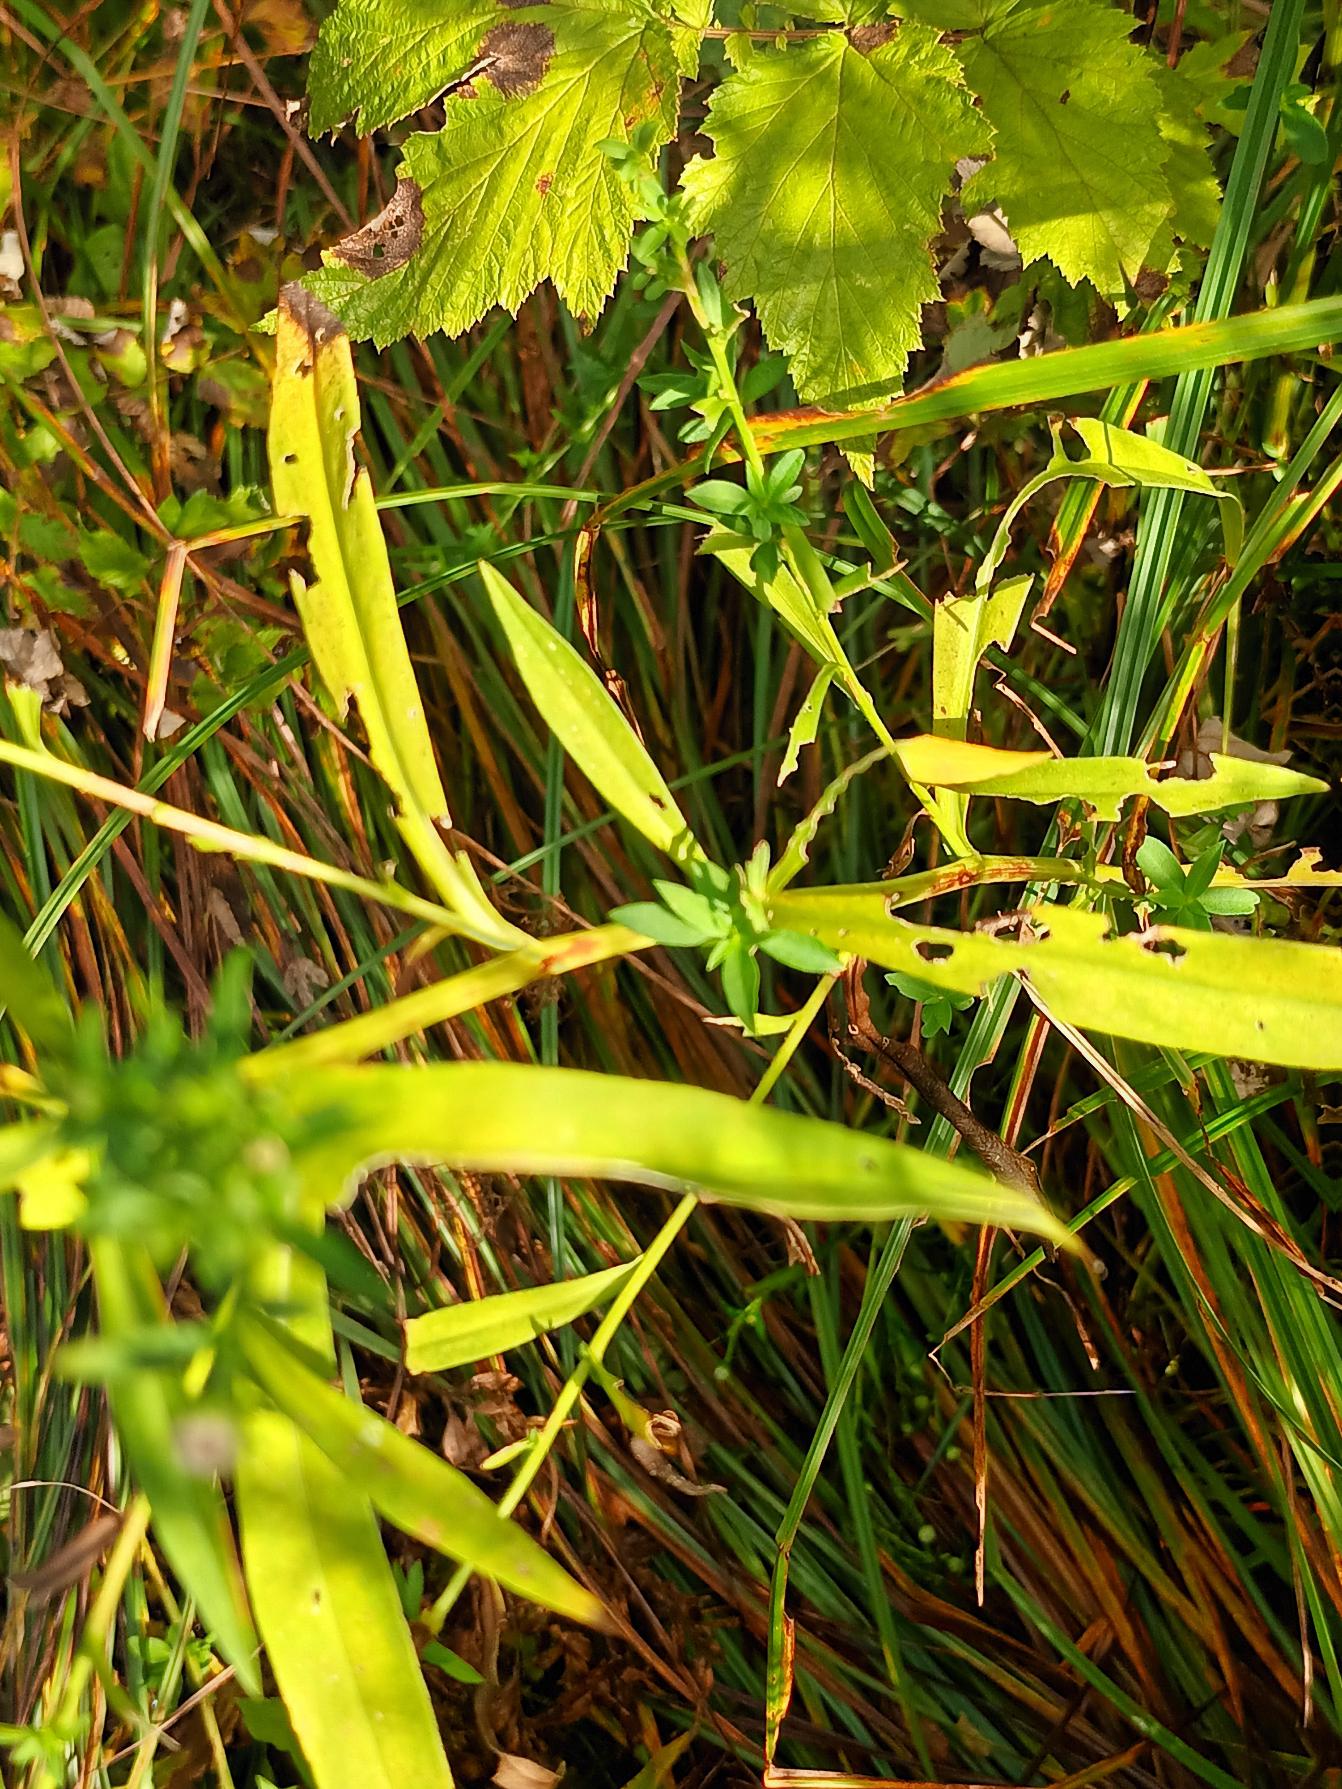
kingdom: Plantae
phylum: Tracheophyta
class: Magnoliopsida
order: Asterales
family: Asteraceae
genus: Symphyotrichum
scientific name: Symphyotrichum
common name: Asters (Symphyotrichum-slægten)
